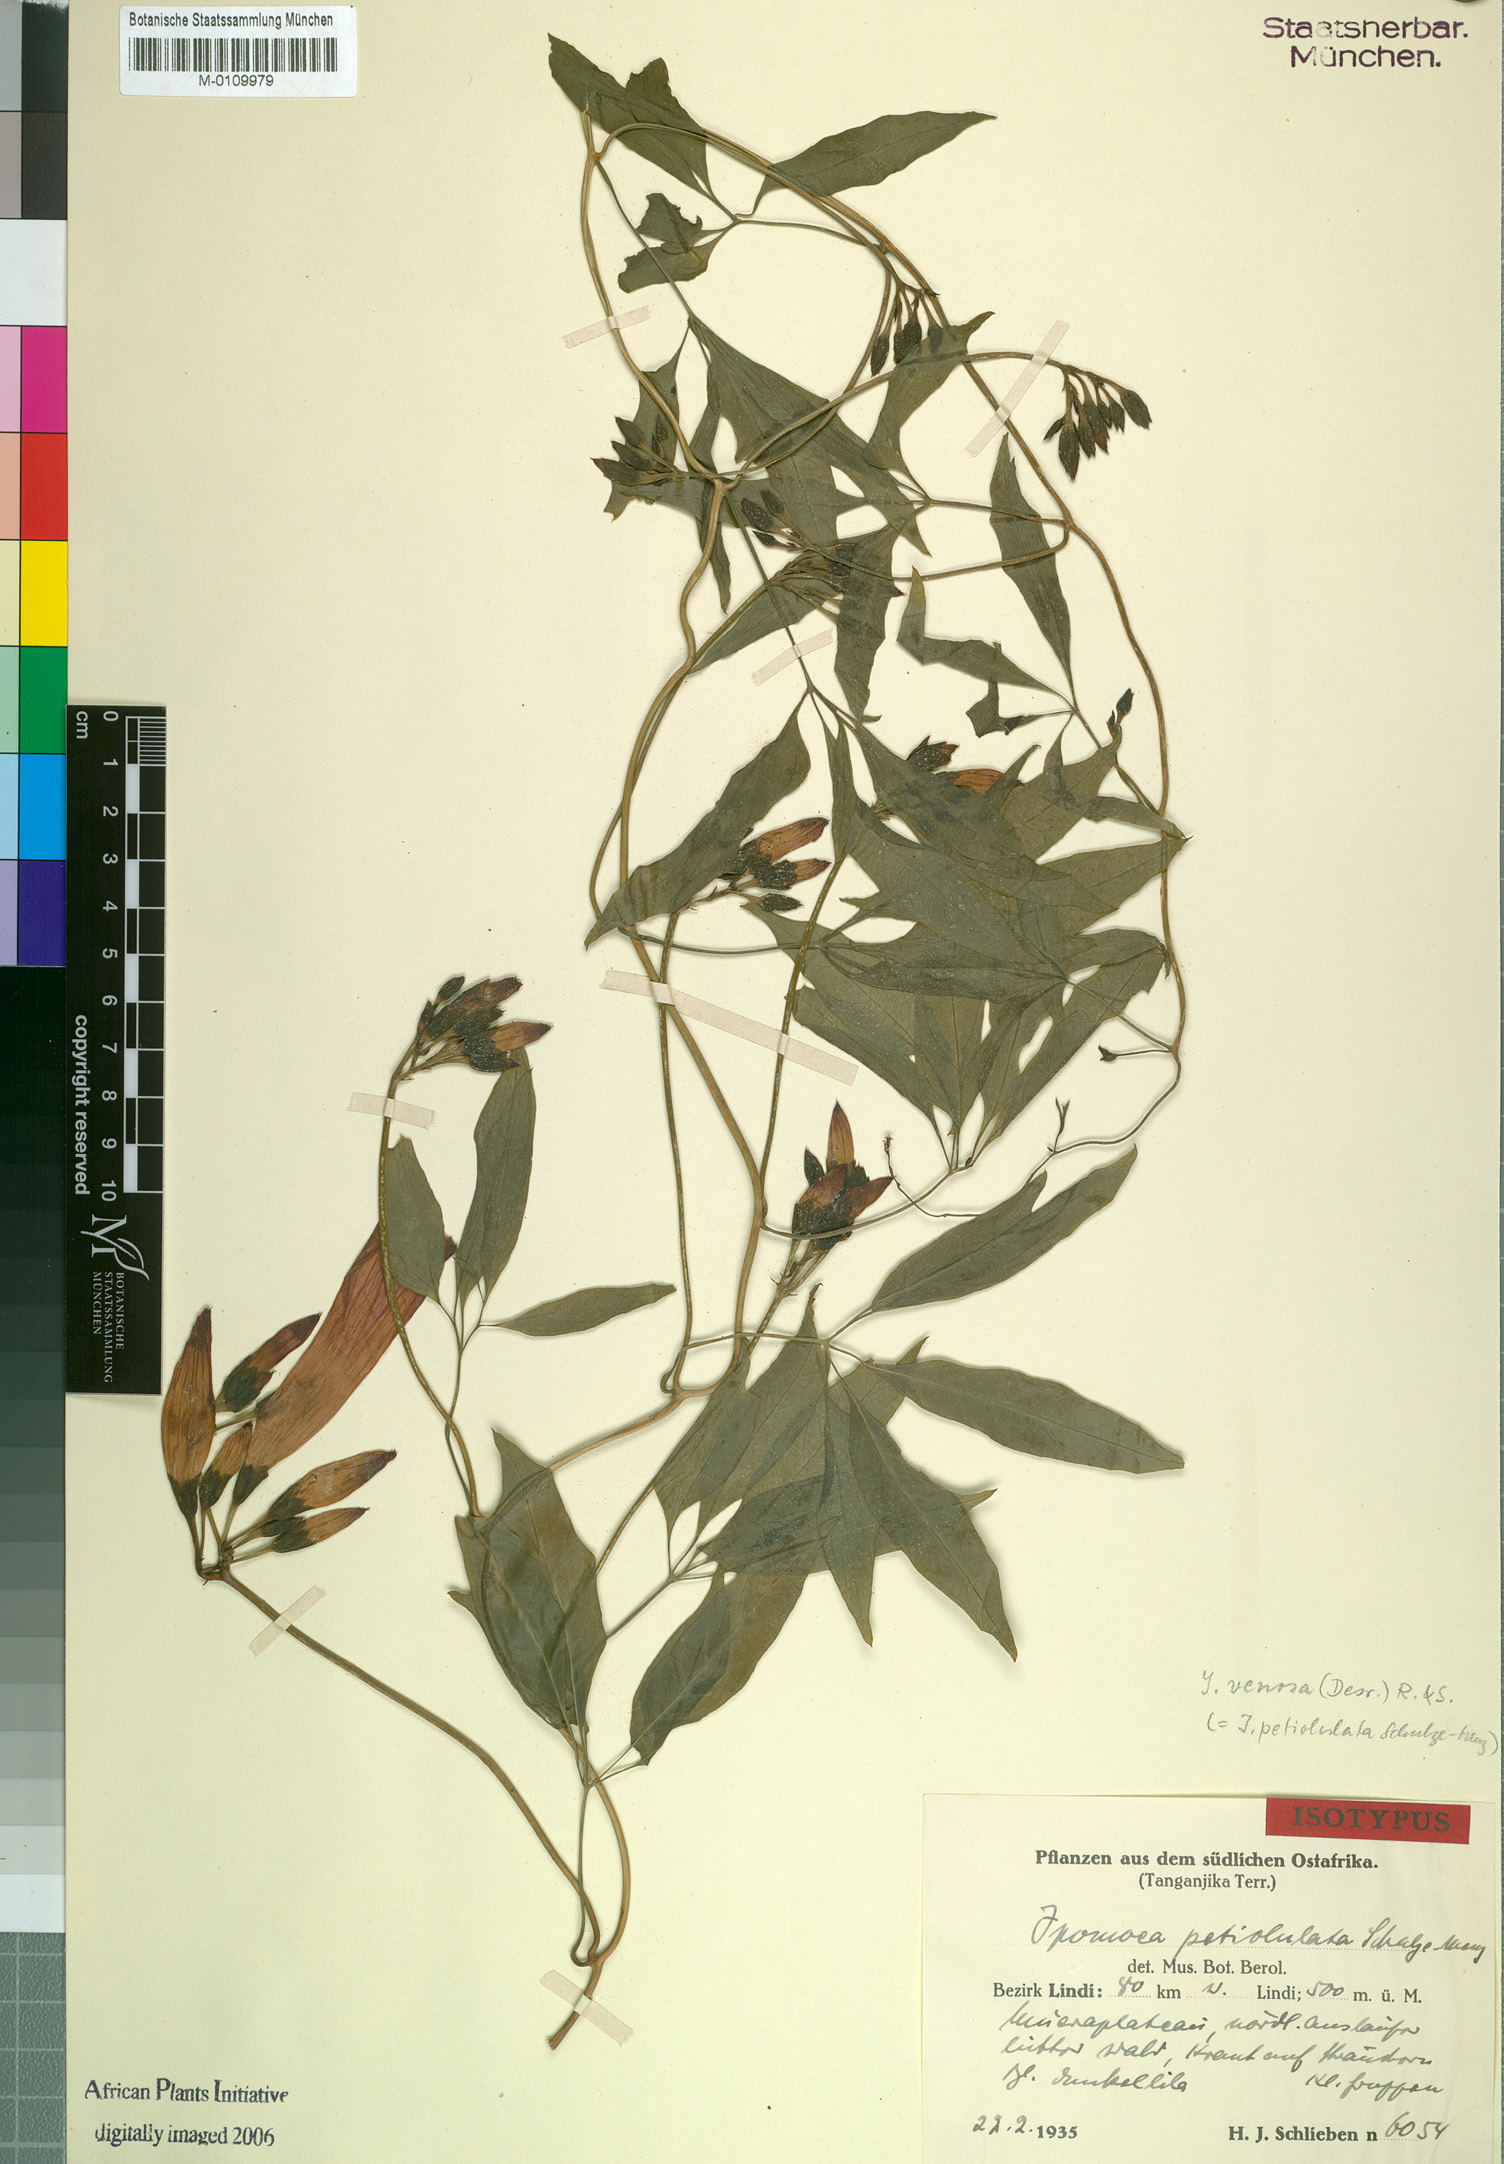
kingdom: Plantae
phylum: Tracheophyta
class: Magnoliopsida
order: Solanales
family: Convolvulaceae
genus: Ipomoea
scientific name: Ipomoea venosa
